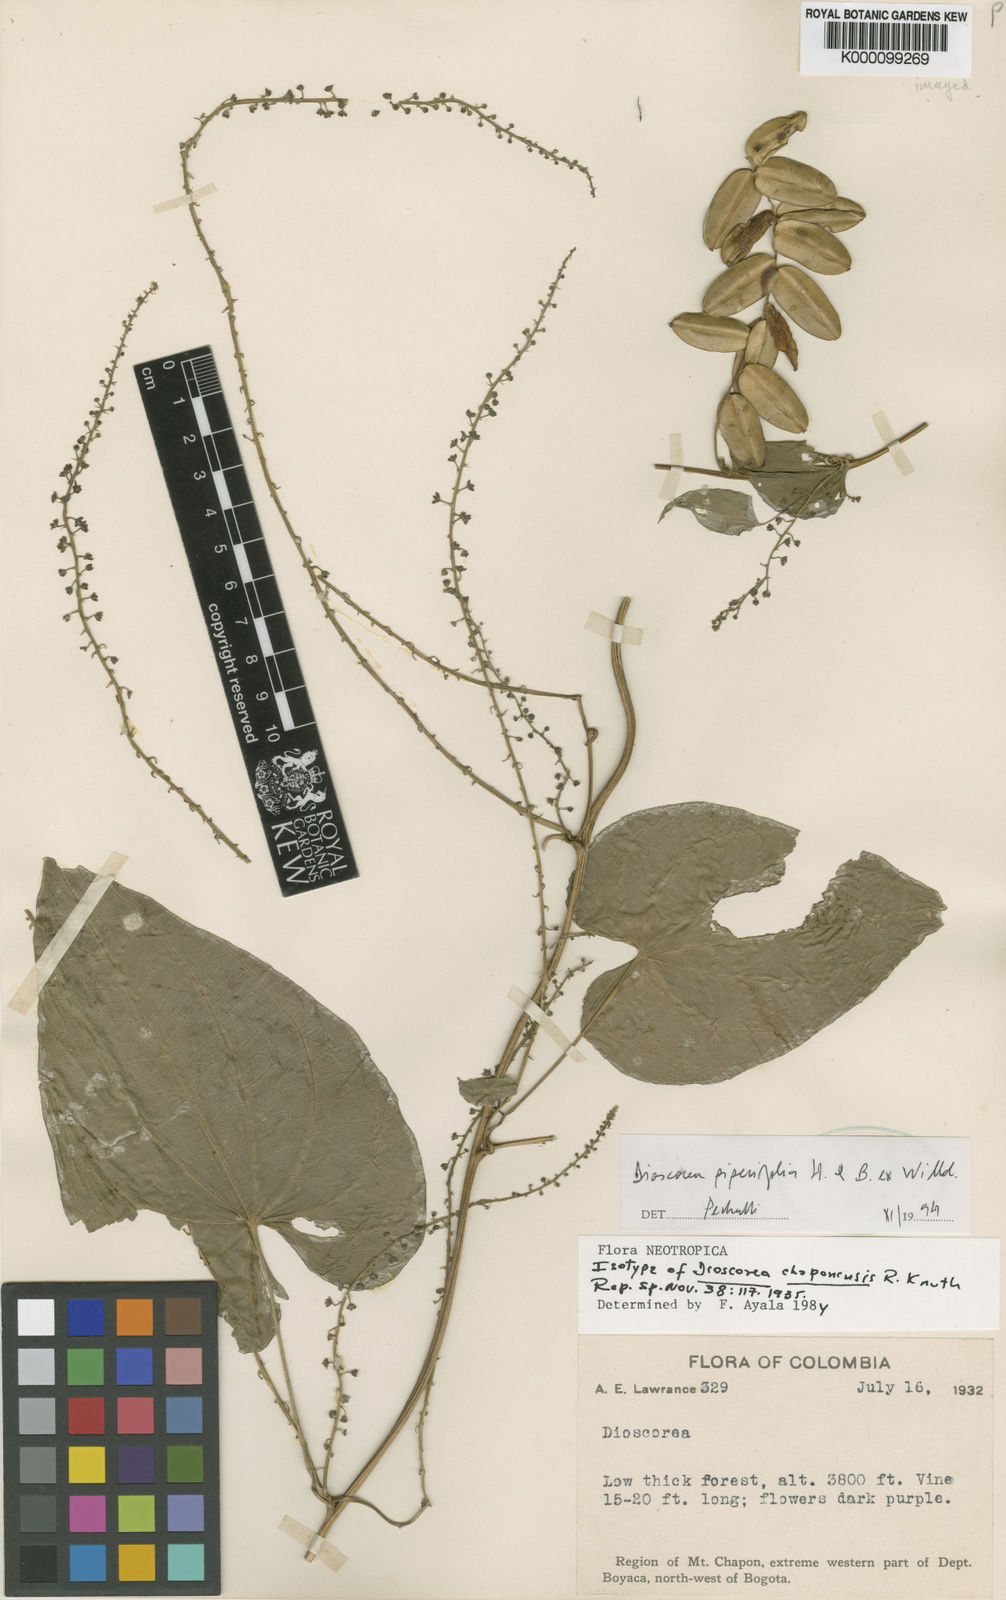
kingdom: Plantae
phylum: Tracheophyta
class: Liliopsida
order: Dioscoreales
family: Dioscoreaceae
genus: Dioscorea
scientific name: Dioscorea chaponensis
